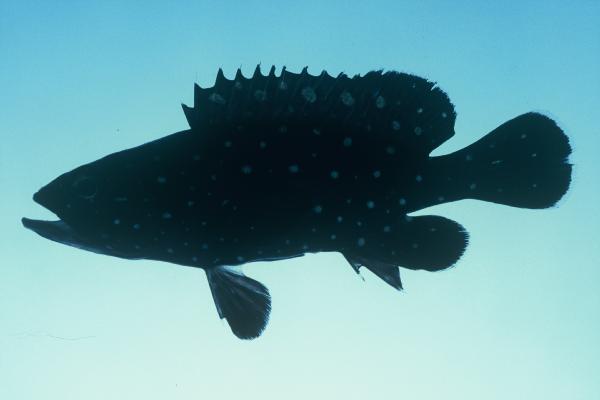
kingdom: Animalia
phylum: Chordata
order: Perciformes
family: Serranidae
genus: Epinephelus
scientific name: Epinephelus coeruleopunctatus
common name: Whitespotted grouper
